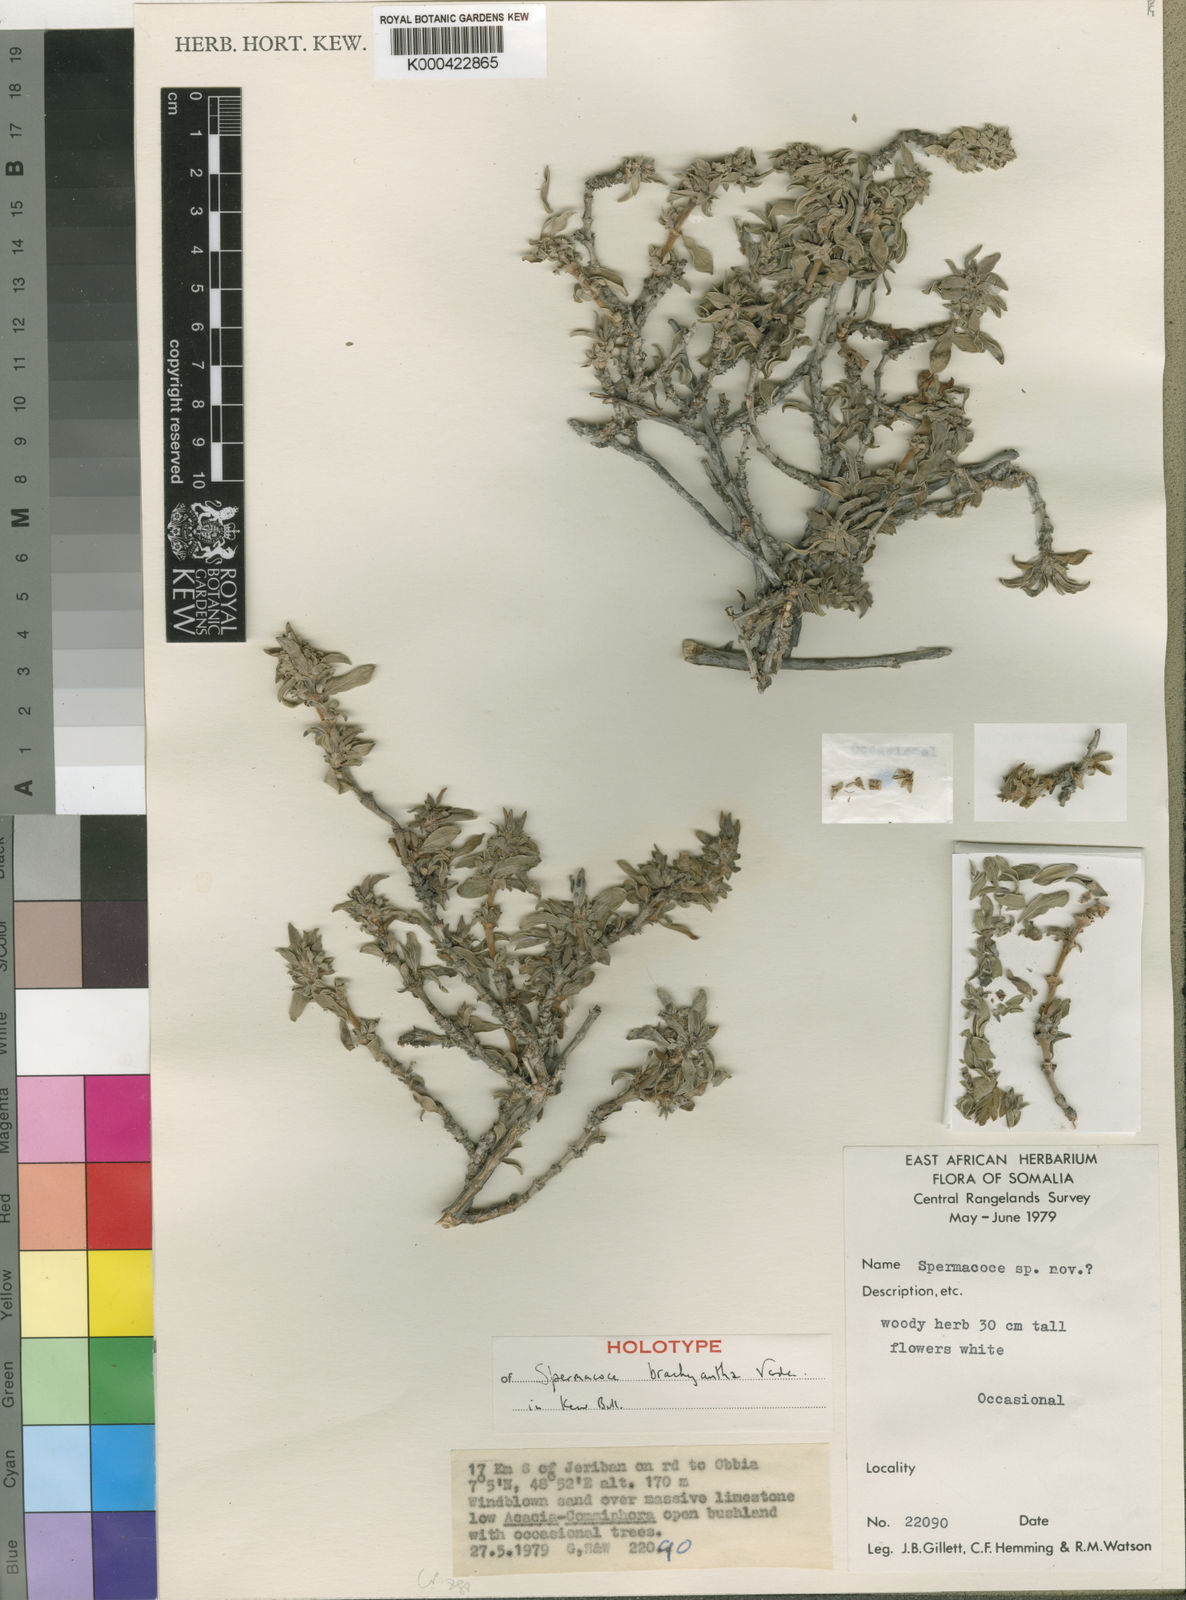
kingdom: Plantae
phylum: Tracheophyta
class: Magnoliopsida
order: Gentianales
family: Rubiaceae
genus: Spermacoce
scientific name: Spermacoce brachyantha
